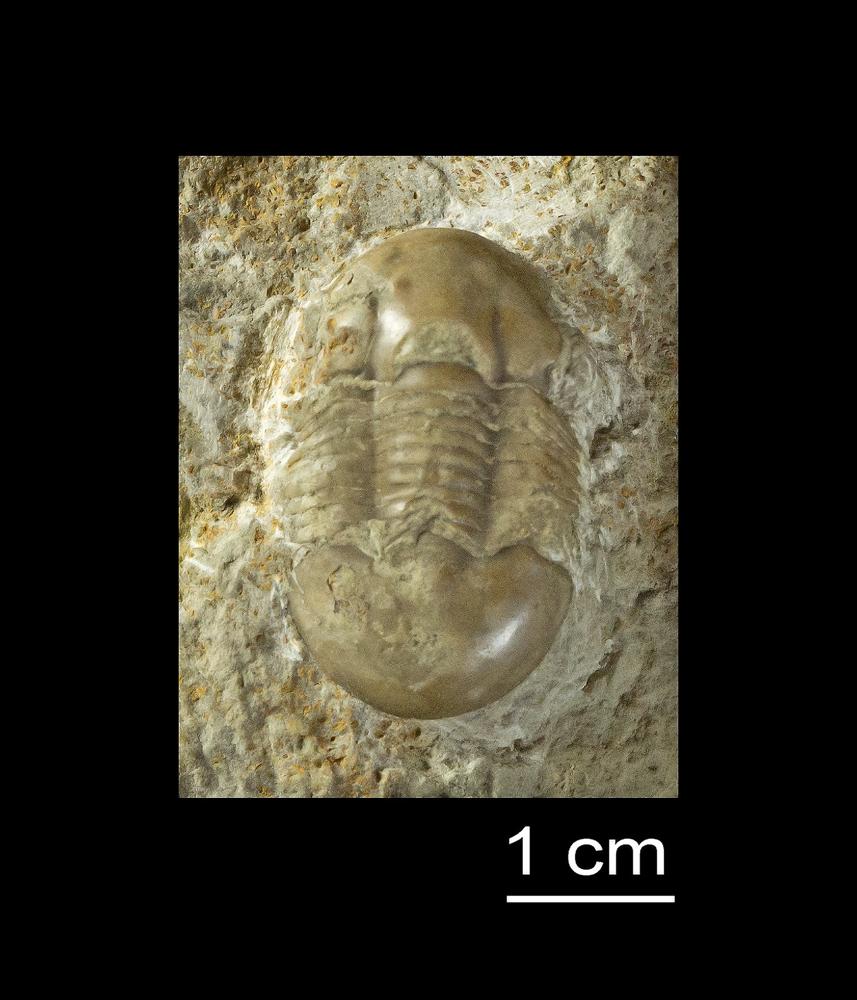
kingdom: Animalia
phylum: Arthropoda
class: Trilobita
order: Corynexochida
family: Illaenidae
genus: Illaenus
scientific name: Illaenus
